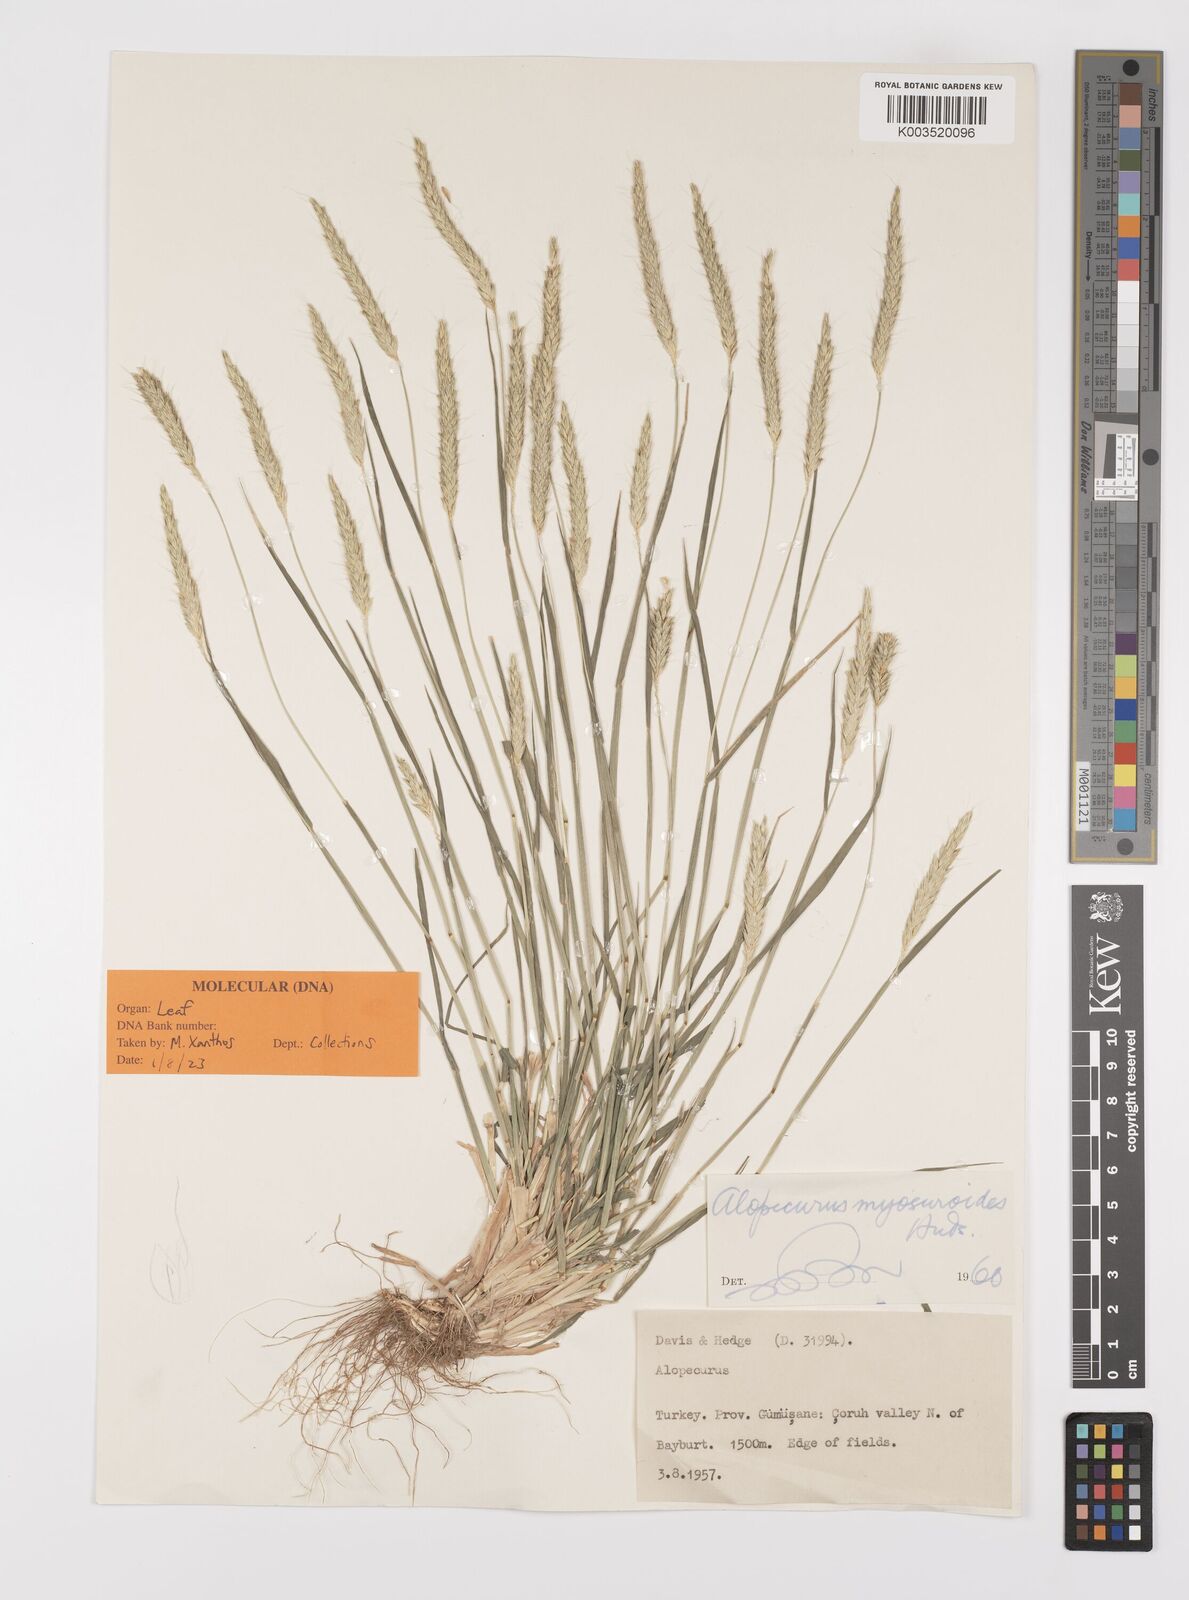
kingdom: Plantae
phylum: Tracheophyta
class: Liliopsida
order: Poales
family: Poaceae
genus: Alopecurus
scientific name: Alopecurus myosuroides
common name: Black-grass
